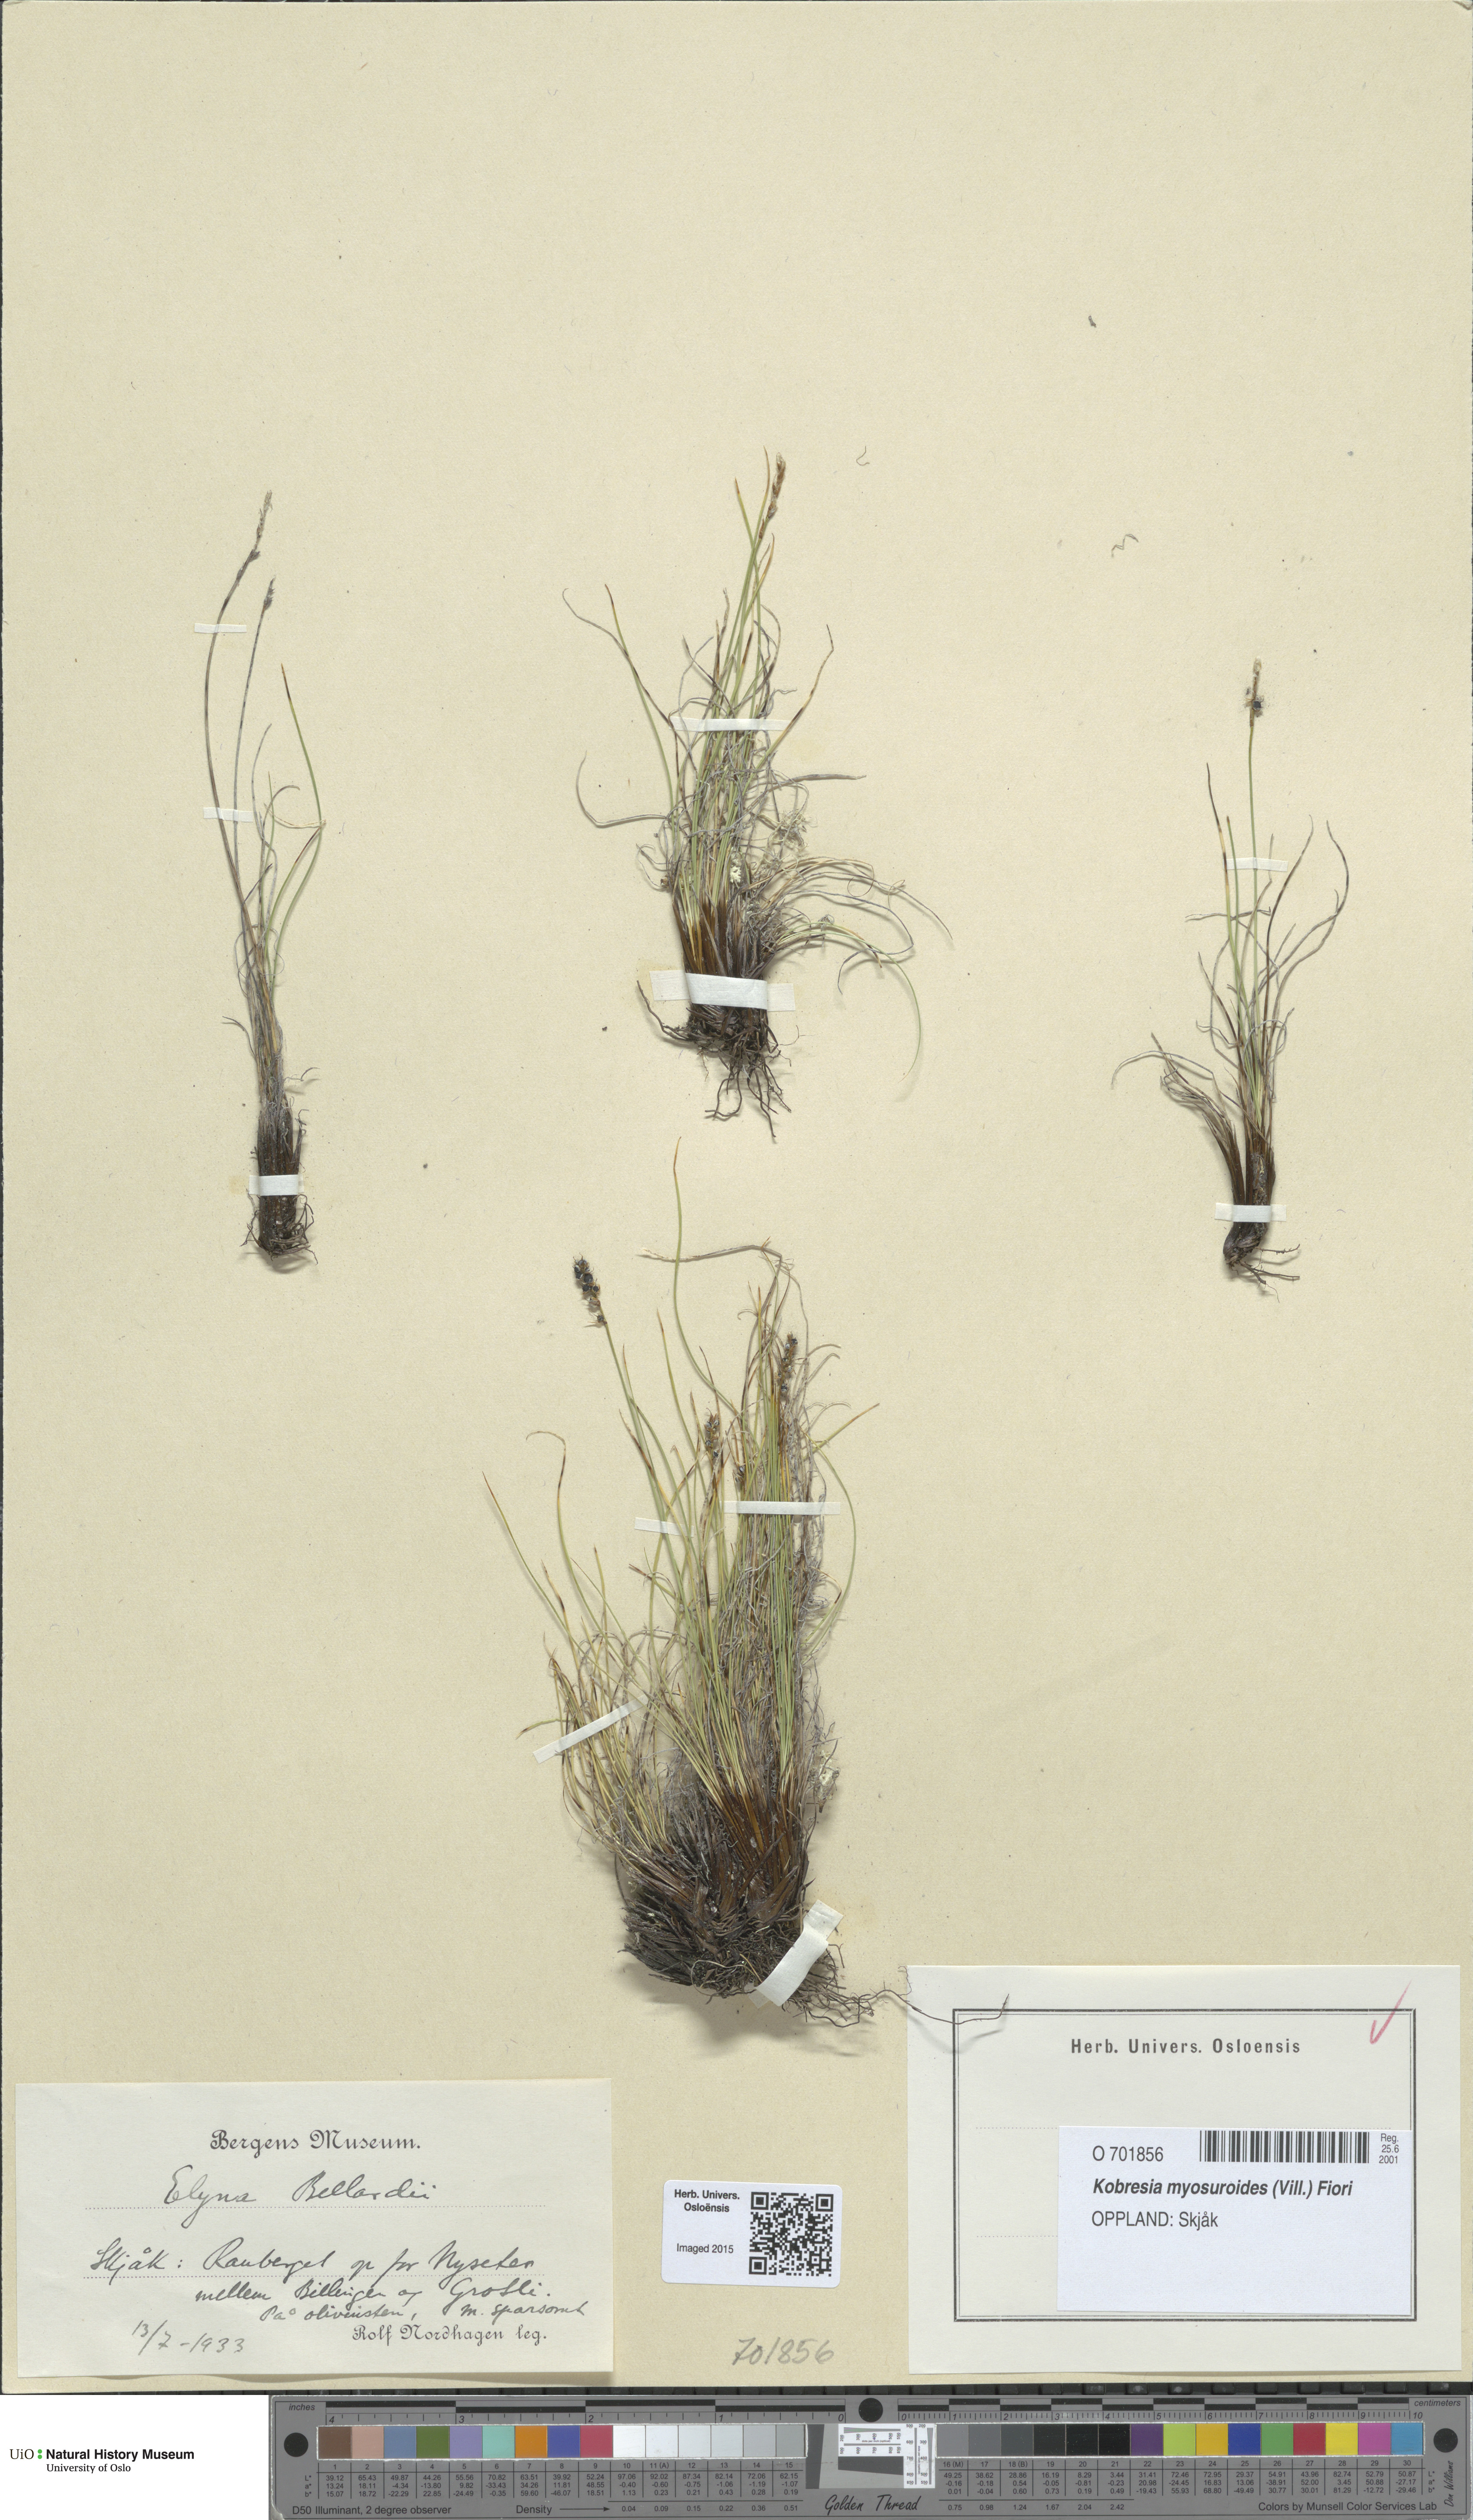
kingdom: Plantae
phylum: Tracheophyta
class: Liliopsida
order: Poales
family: Cyperaceae
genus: Carex
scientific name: Carex myosuroides
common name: Bellard's bog sedge
